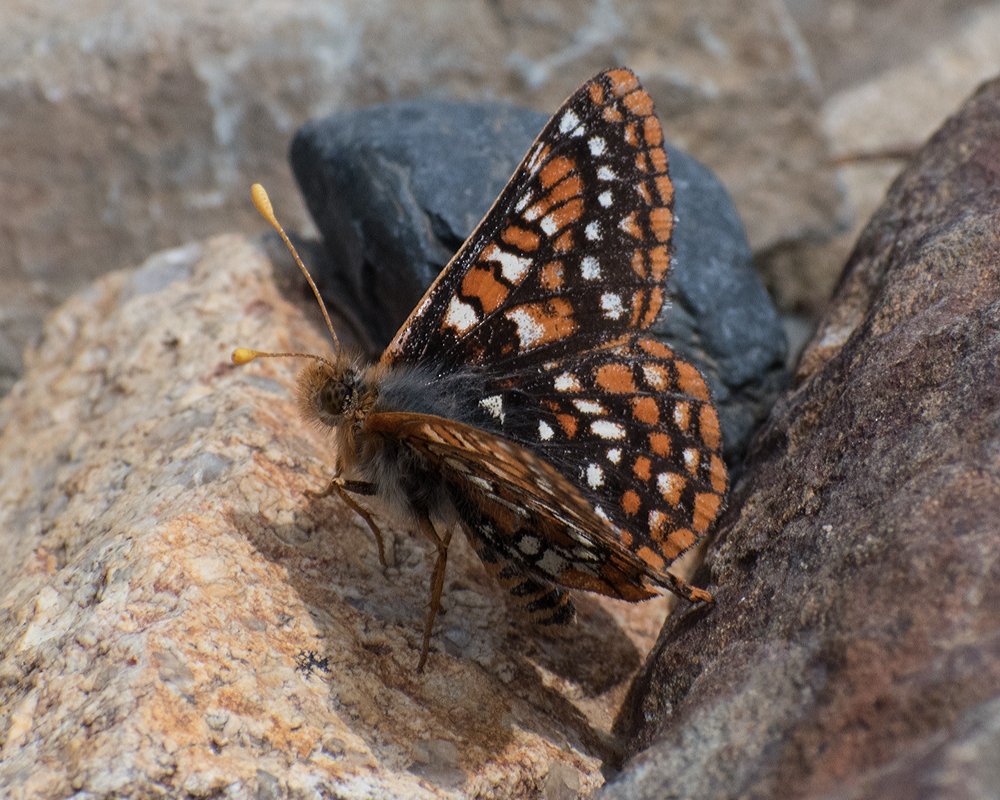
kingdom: Animalia
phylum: Arthropoda
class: Insecta
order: Lepidoptera
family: Nymphalidae
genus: Occidryas
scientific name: Occidryas anicia
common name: Anicia Checkerspot
